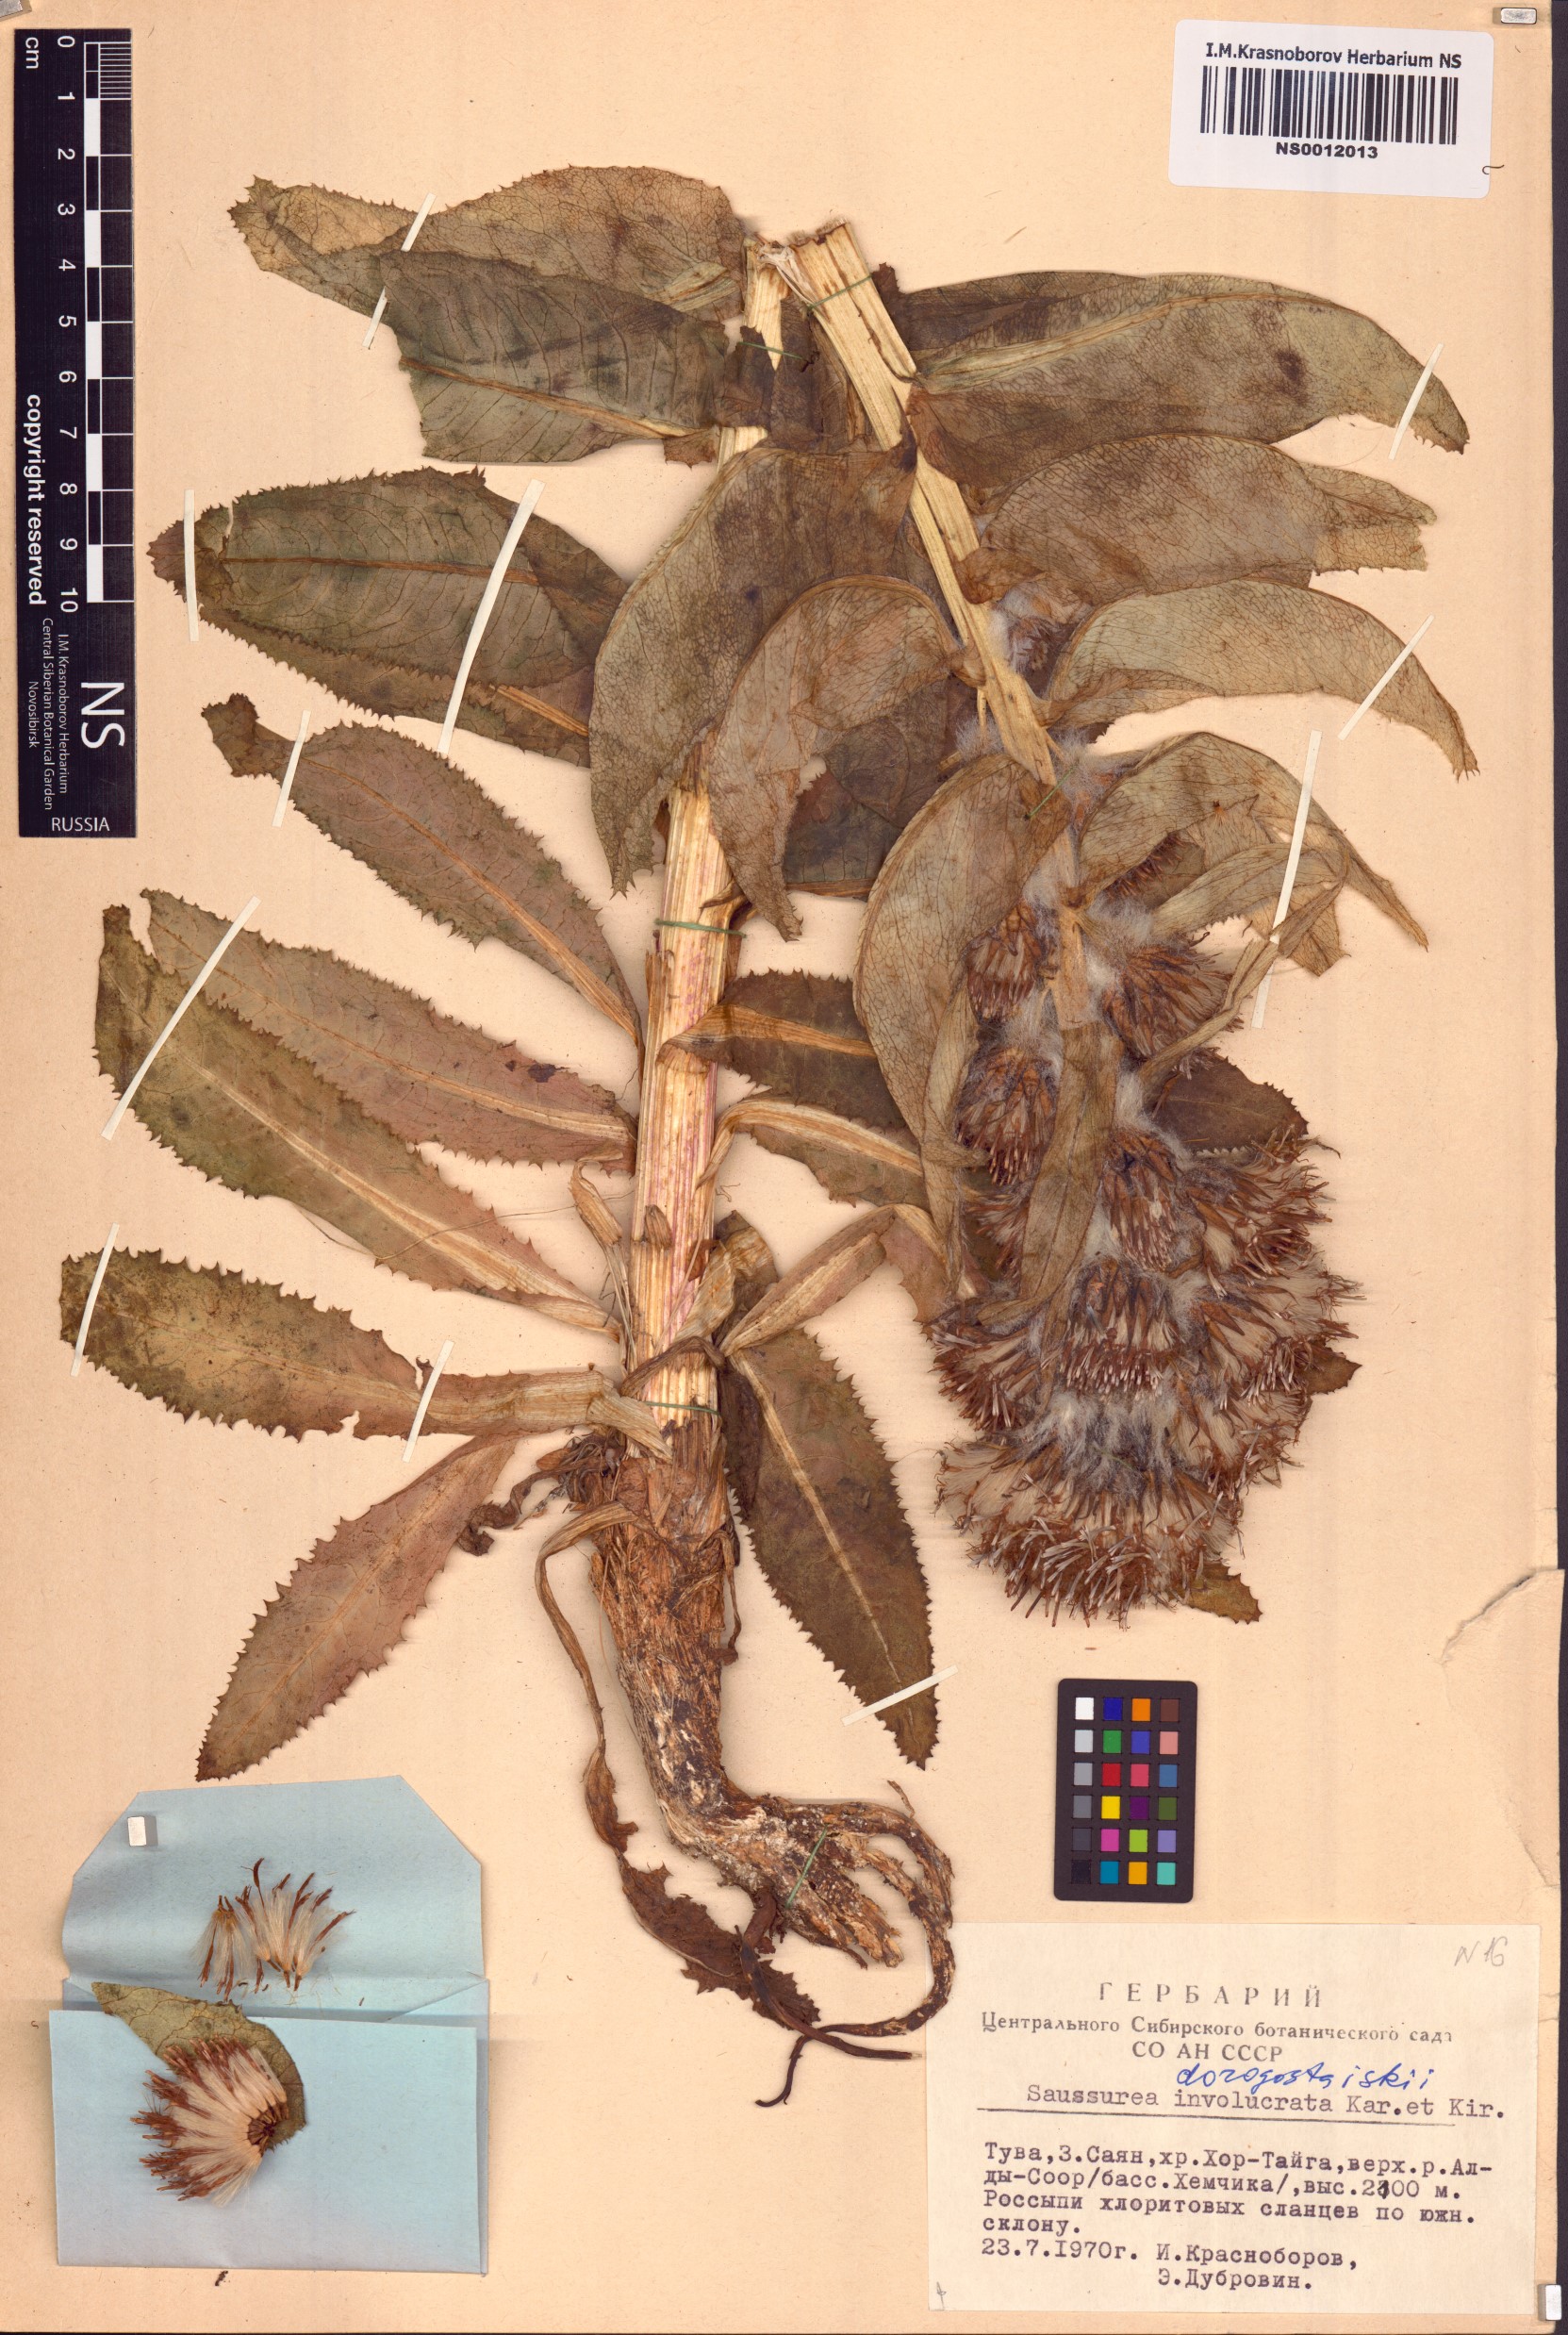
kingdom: Plantae
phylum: Tracheophyta
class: Magnoliopsida
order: Asterales
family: Asteraceae
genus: Saussurea
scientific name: Saussurea involucrata
